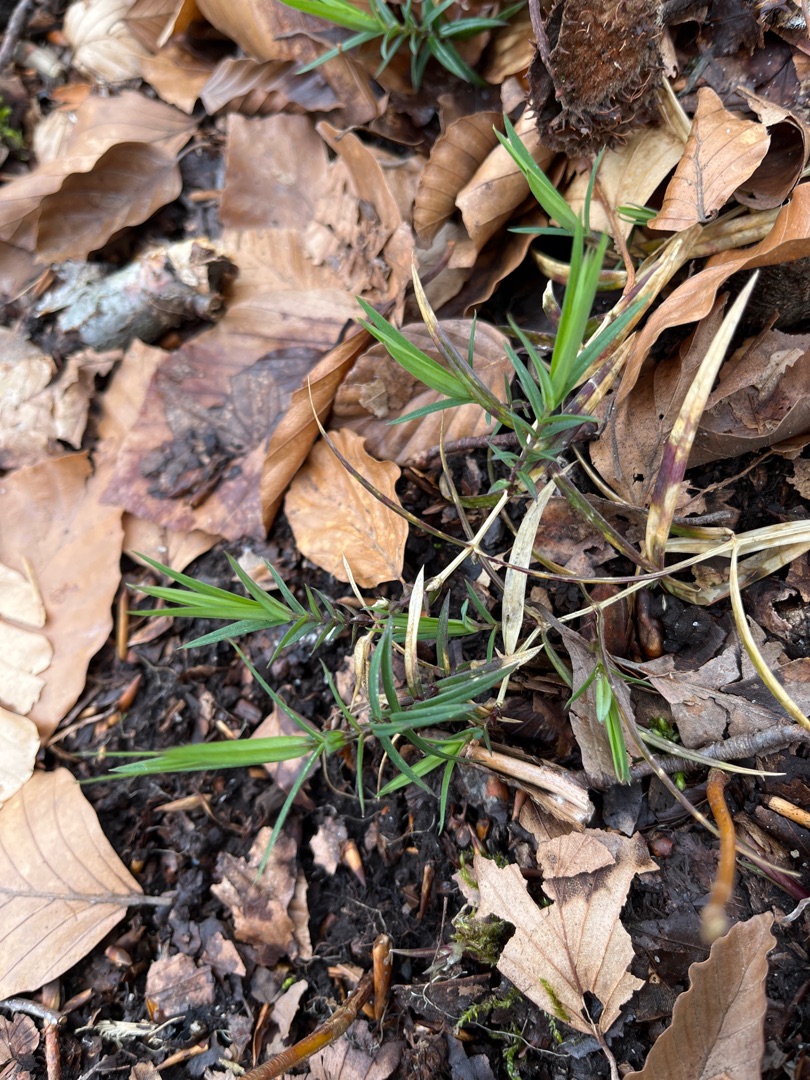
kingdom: Plantae
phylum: Tracheophyta
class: Magnoliopsida
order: Caryophyllales
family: Caryophyllaceae
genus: Rabelera
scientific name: Rabelera holostea
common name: Stor fladstjerne
